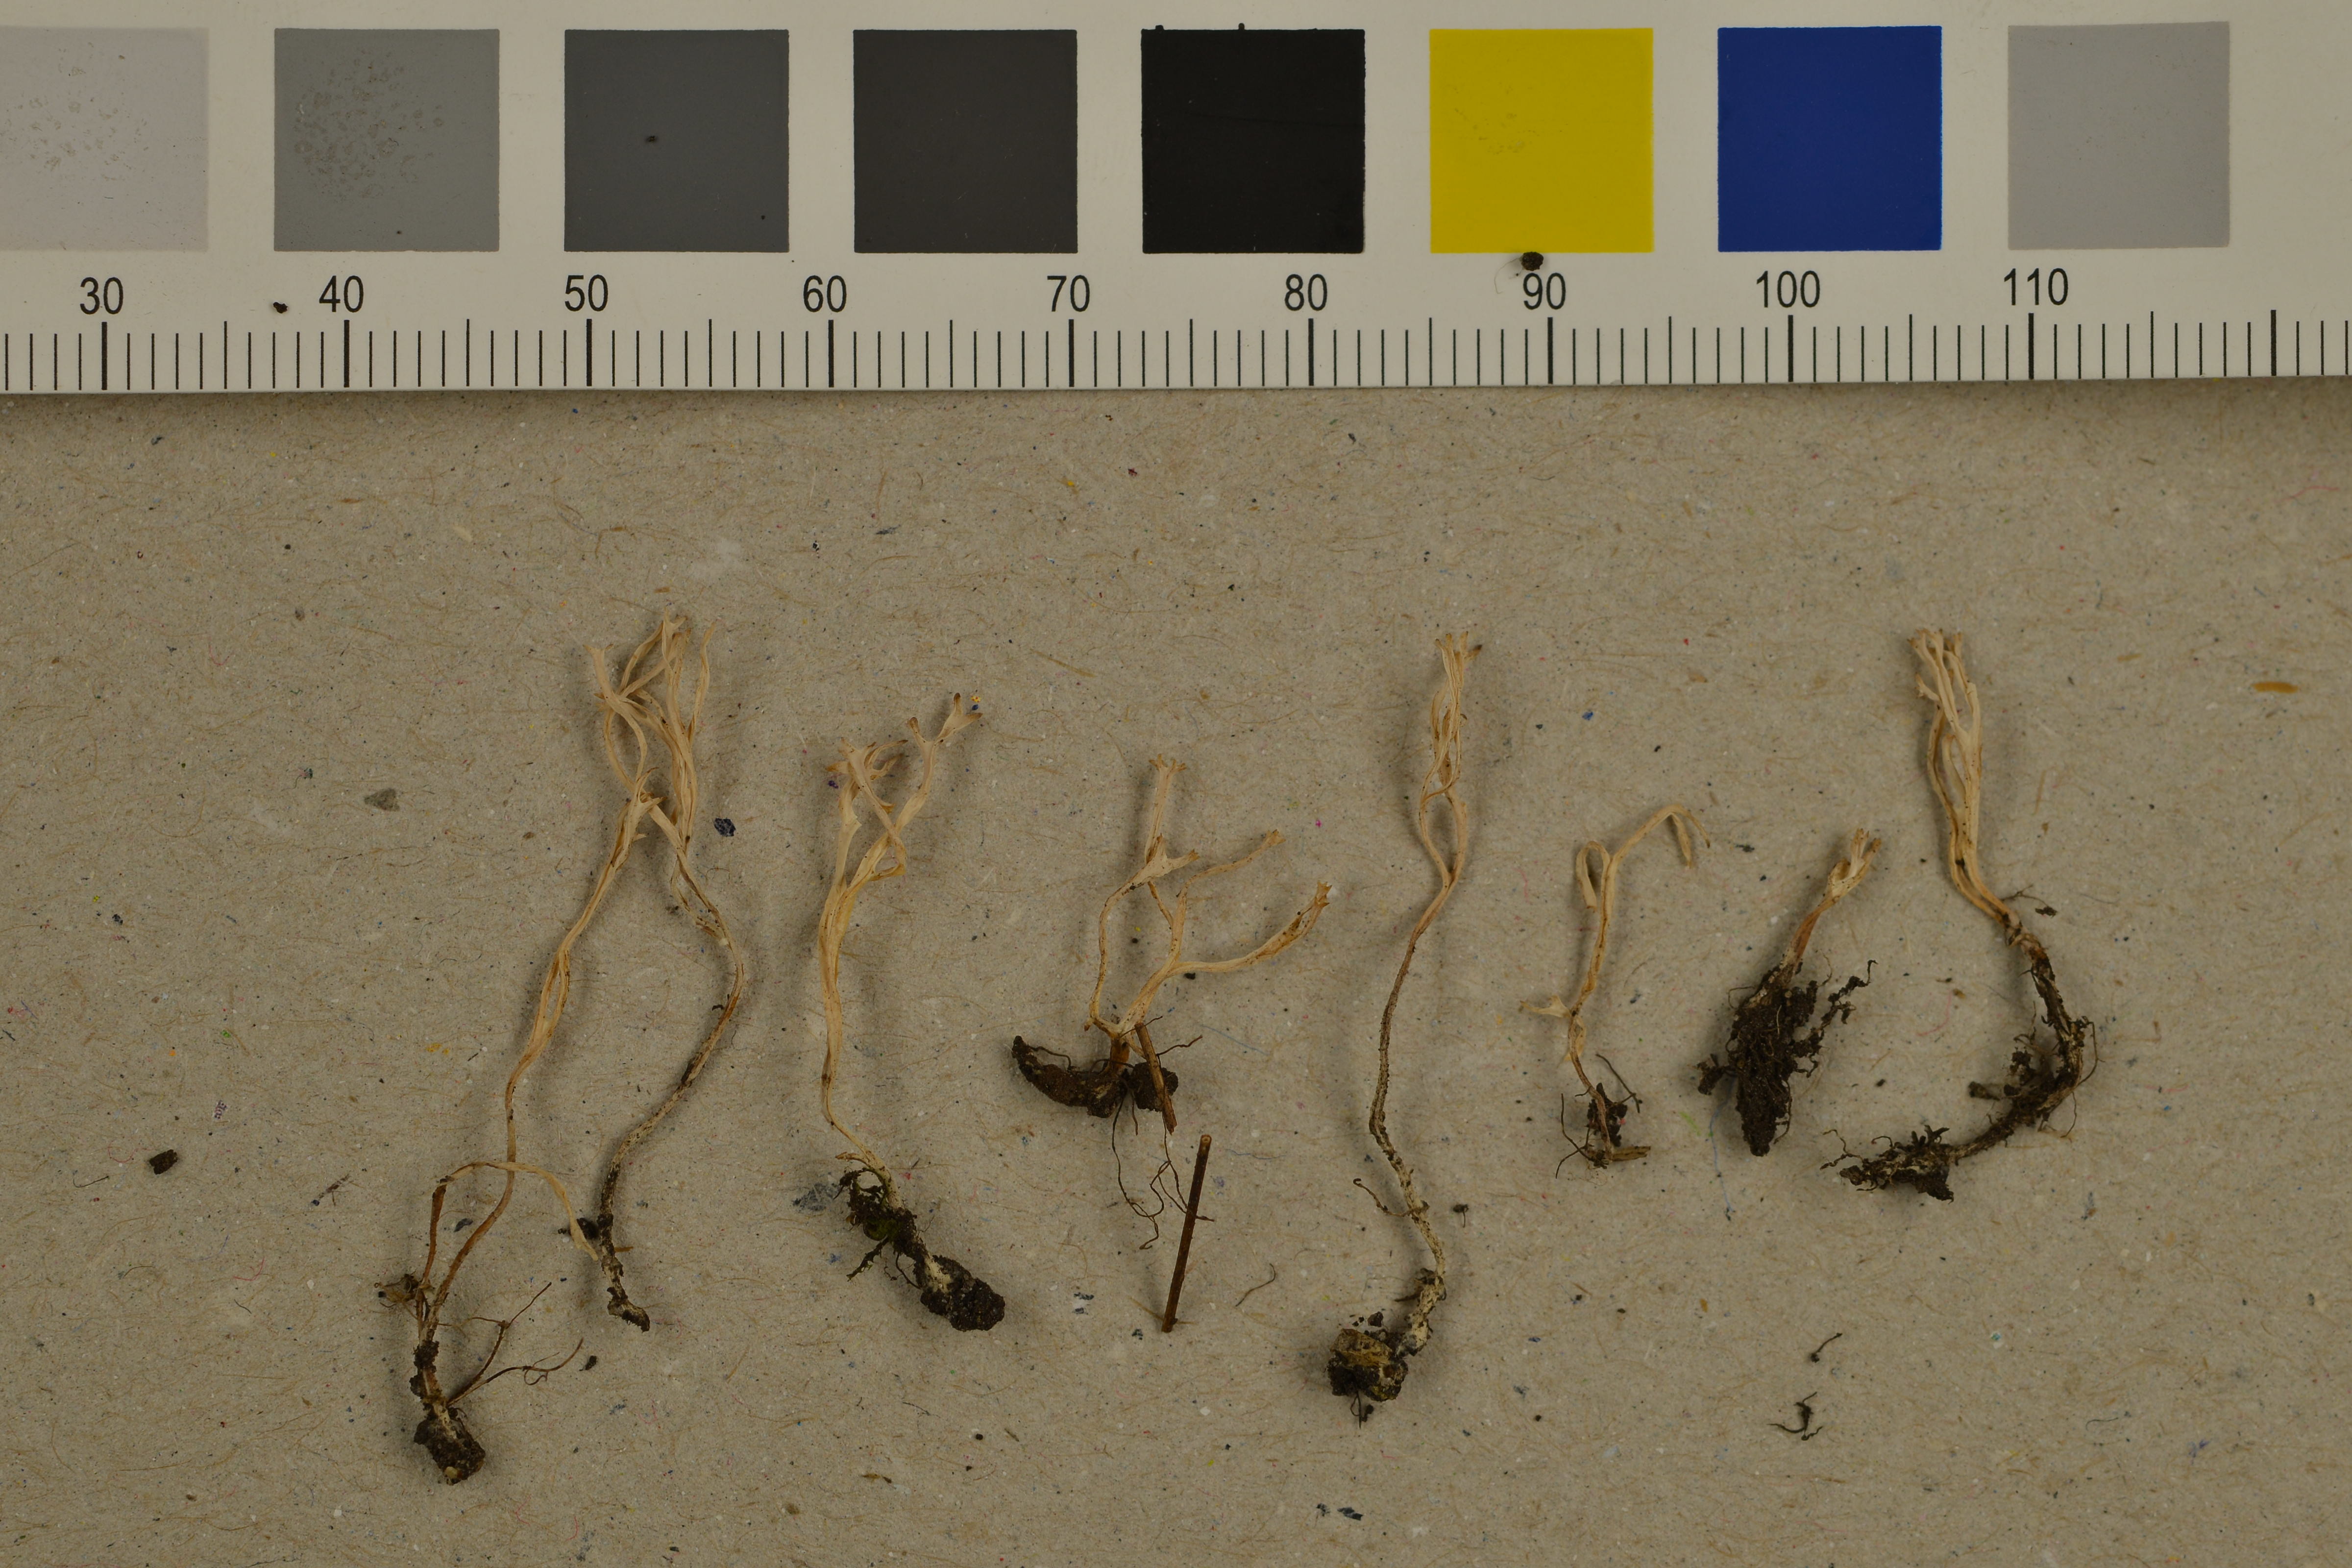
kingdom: Fungi
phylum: Basidiomycota
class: Agaricomycetes
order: Agaricales
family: Clavariaceae
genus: Ramariopsis
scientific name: Ramariopsis subtilis
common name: Slender coral
